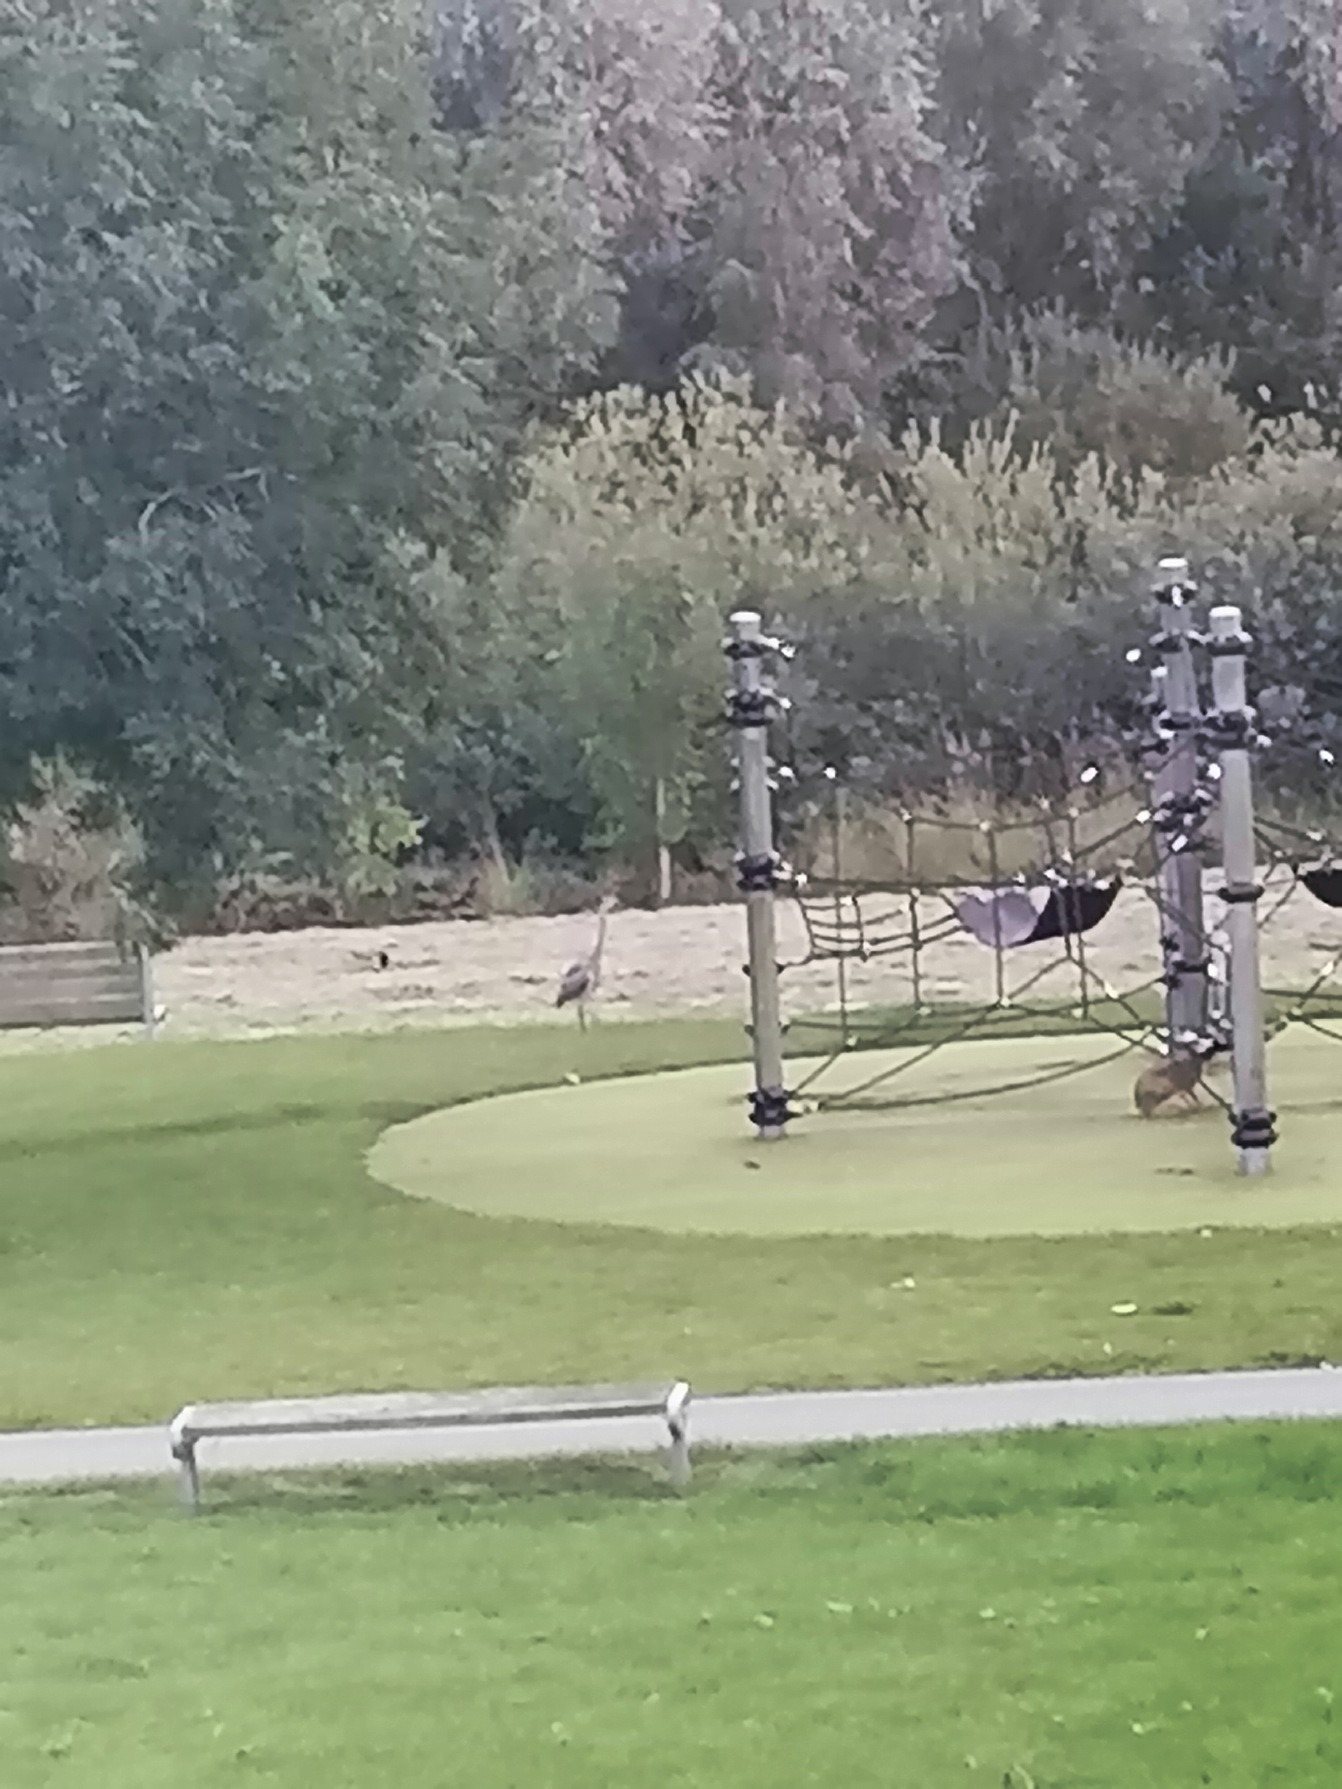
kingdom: Animalia
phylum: Chordata
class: Aves
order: Pelecaniformes
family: Ardeidae
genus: Ardea
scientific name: Ardea cinerea
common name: Fiskehejre
